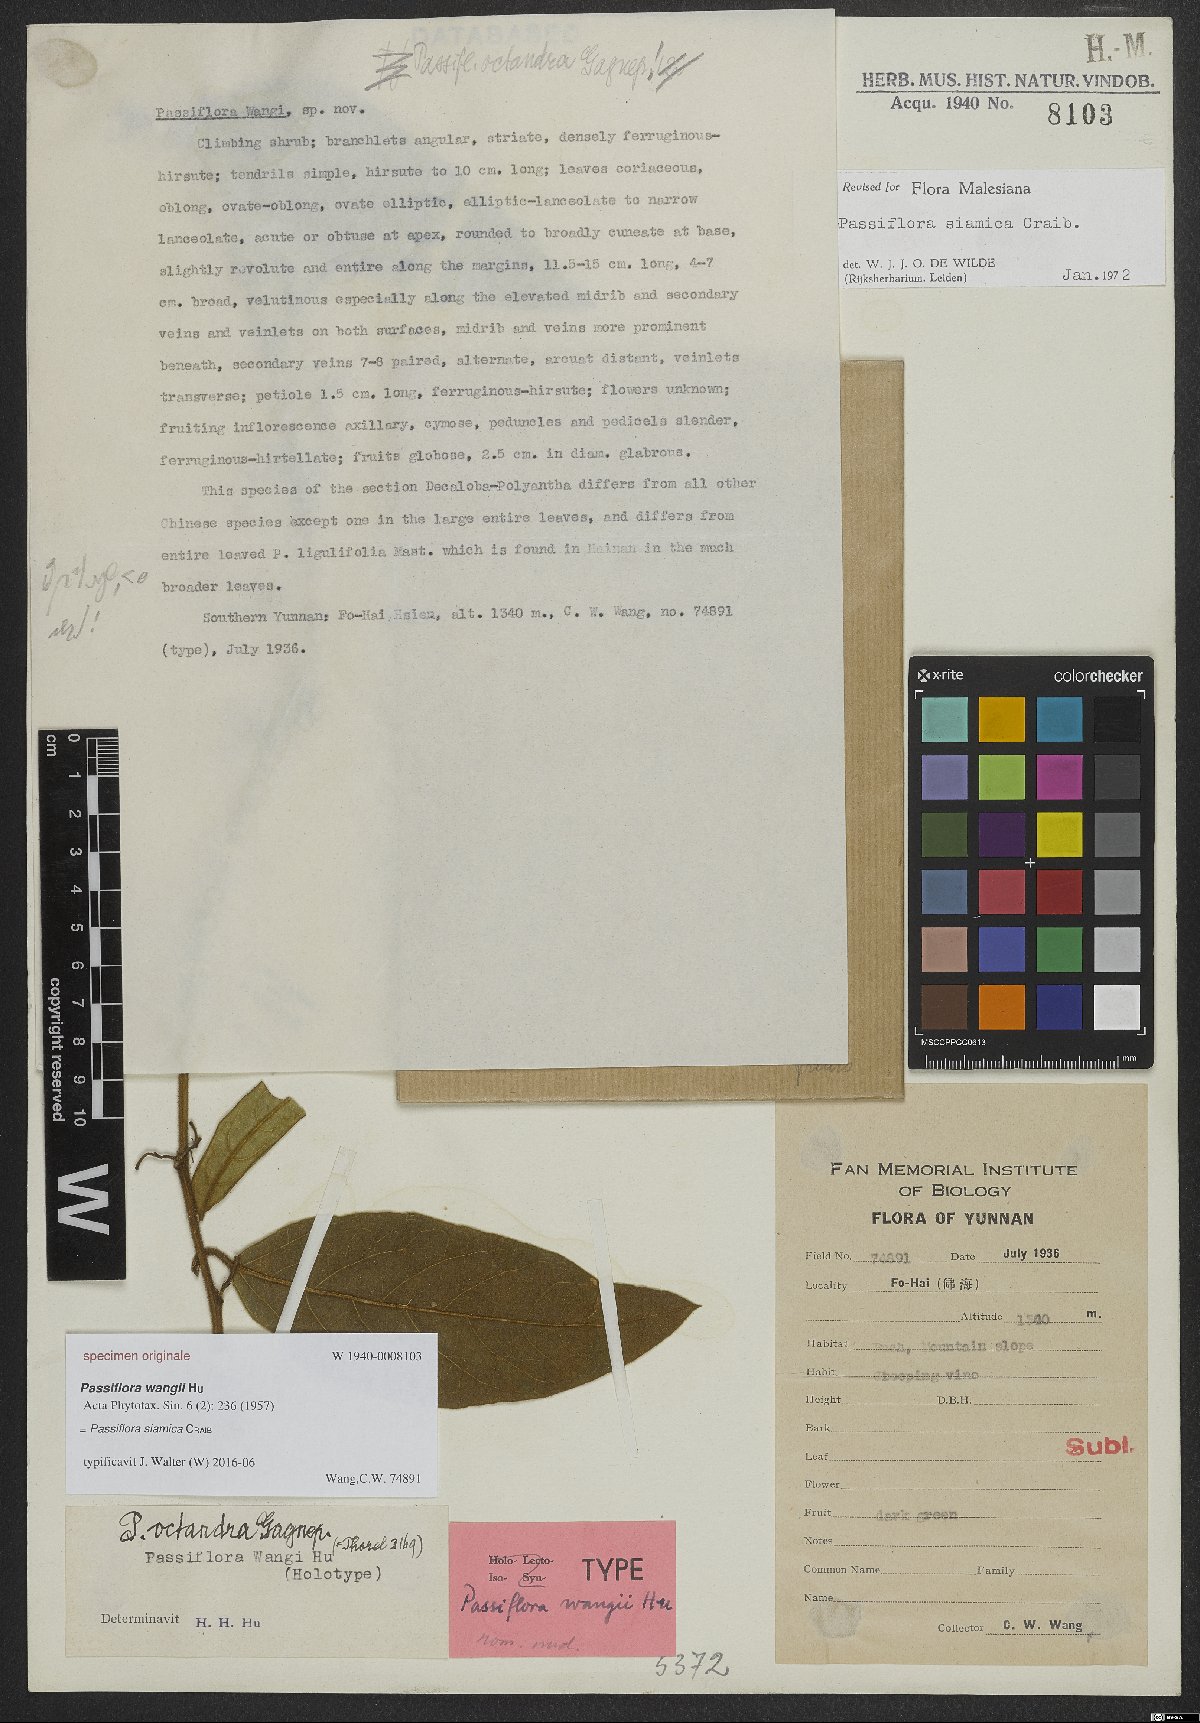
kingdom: Plantae
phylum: Tracheophyta
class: Magnoliopsida
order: Malpighiales
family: Passifloraceae
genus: Passiflora
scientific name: Passiflora siamica
